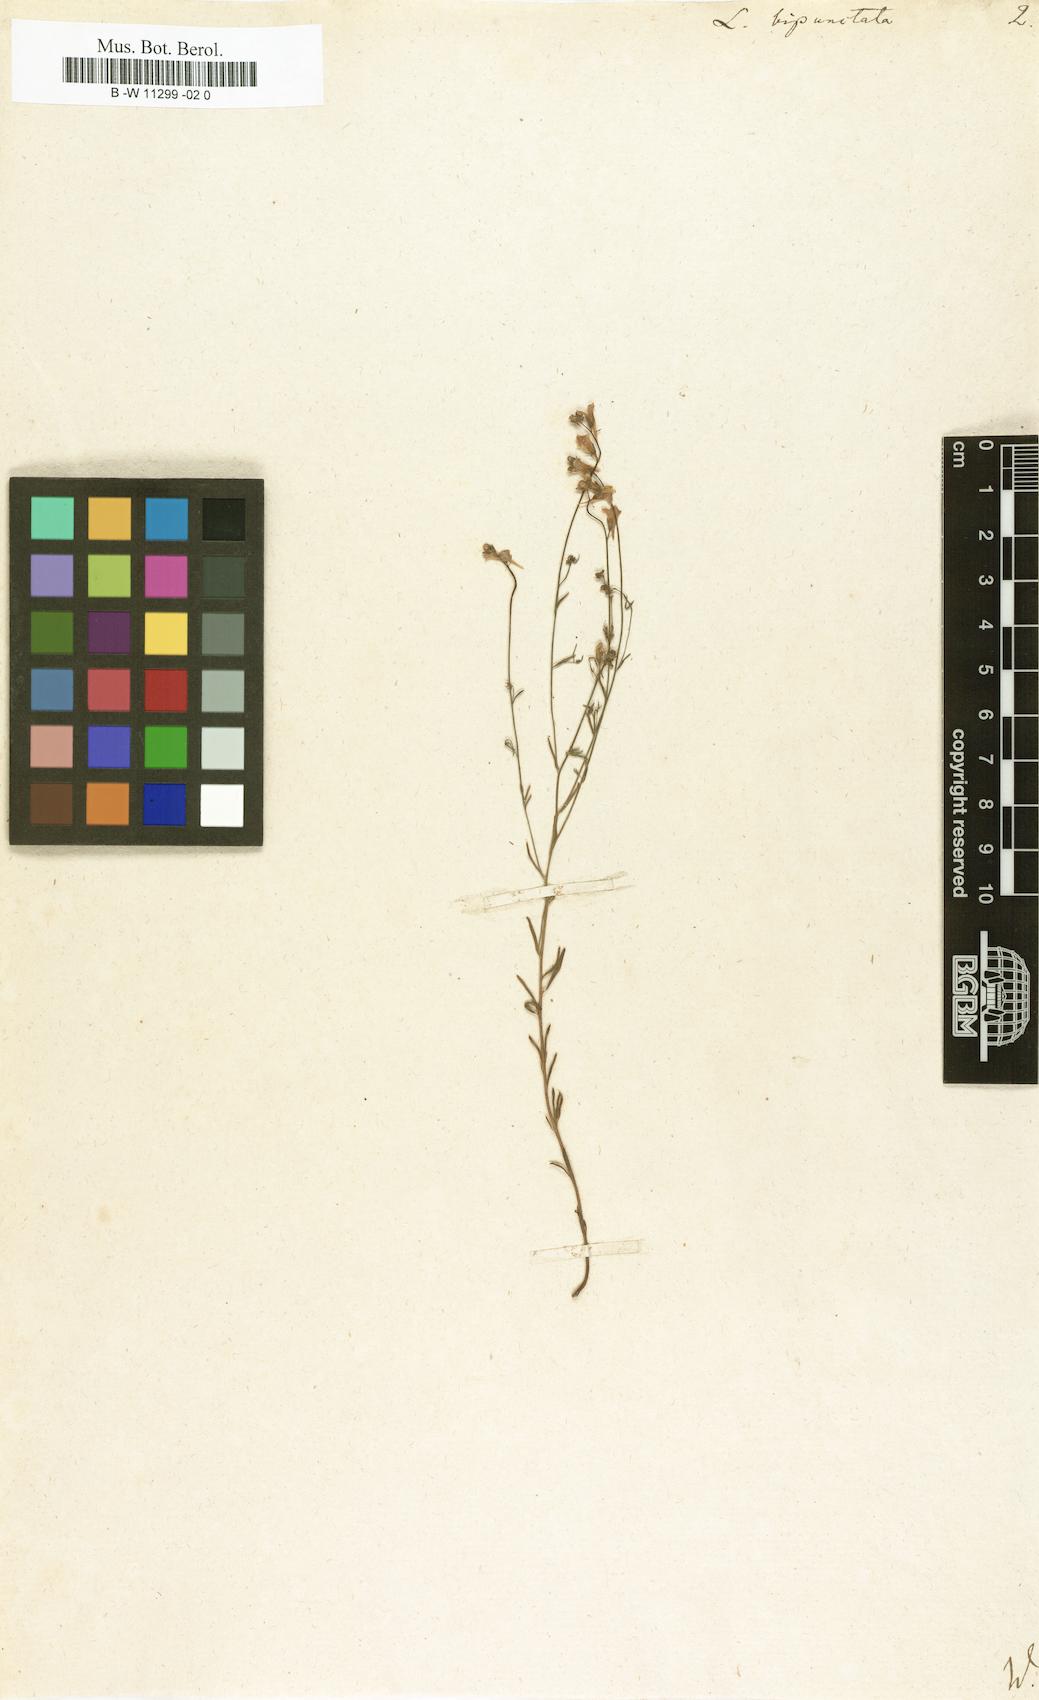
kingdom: Plantae
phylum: Tracheophyta
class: Magnoliopsida
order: Lamiales
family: Plantaginaceae
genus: Linaria
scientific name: Linaria bipunctata
